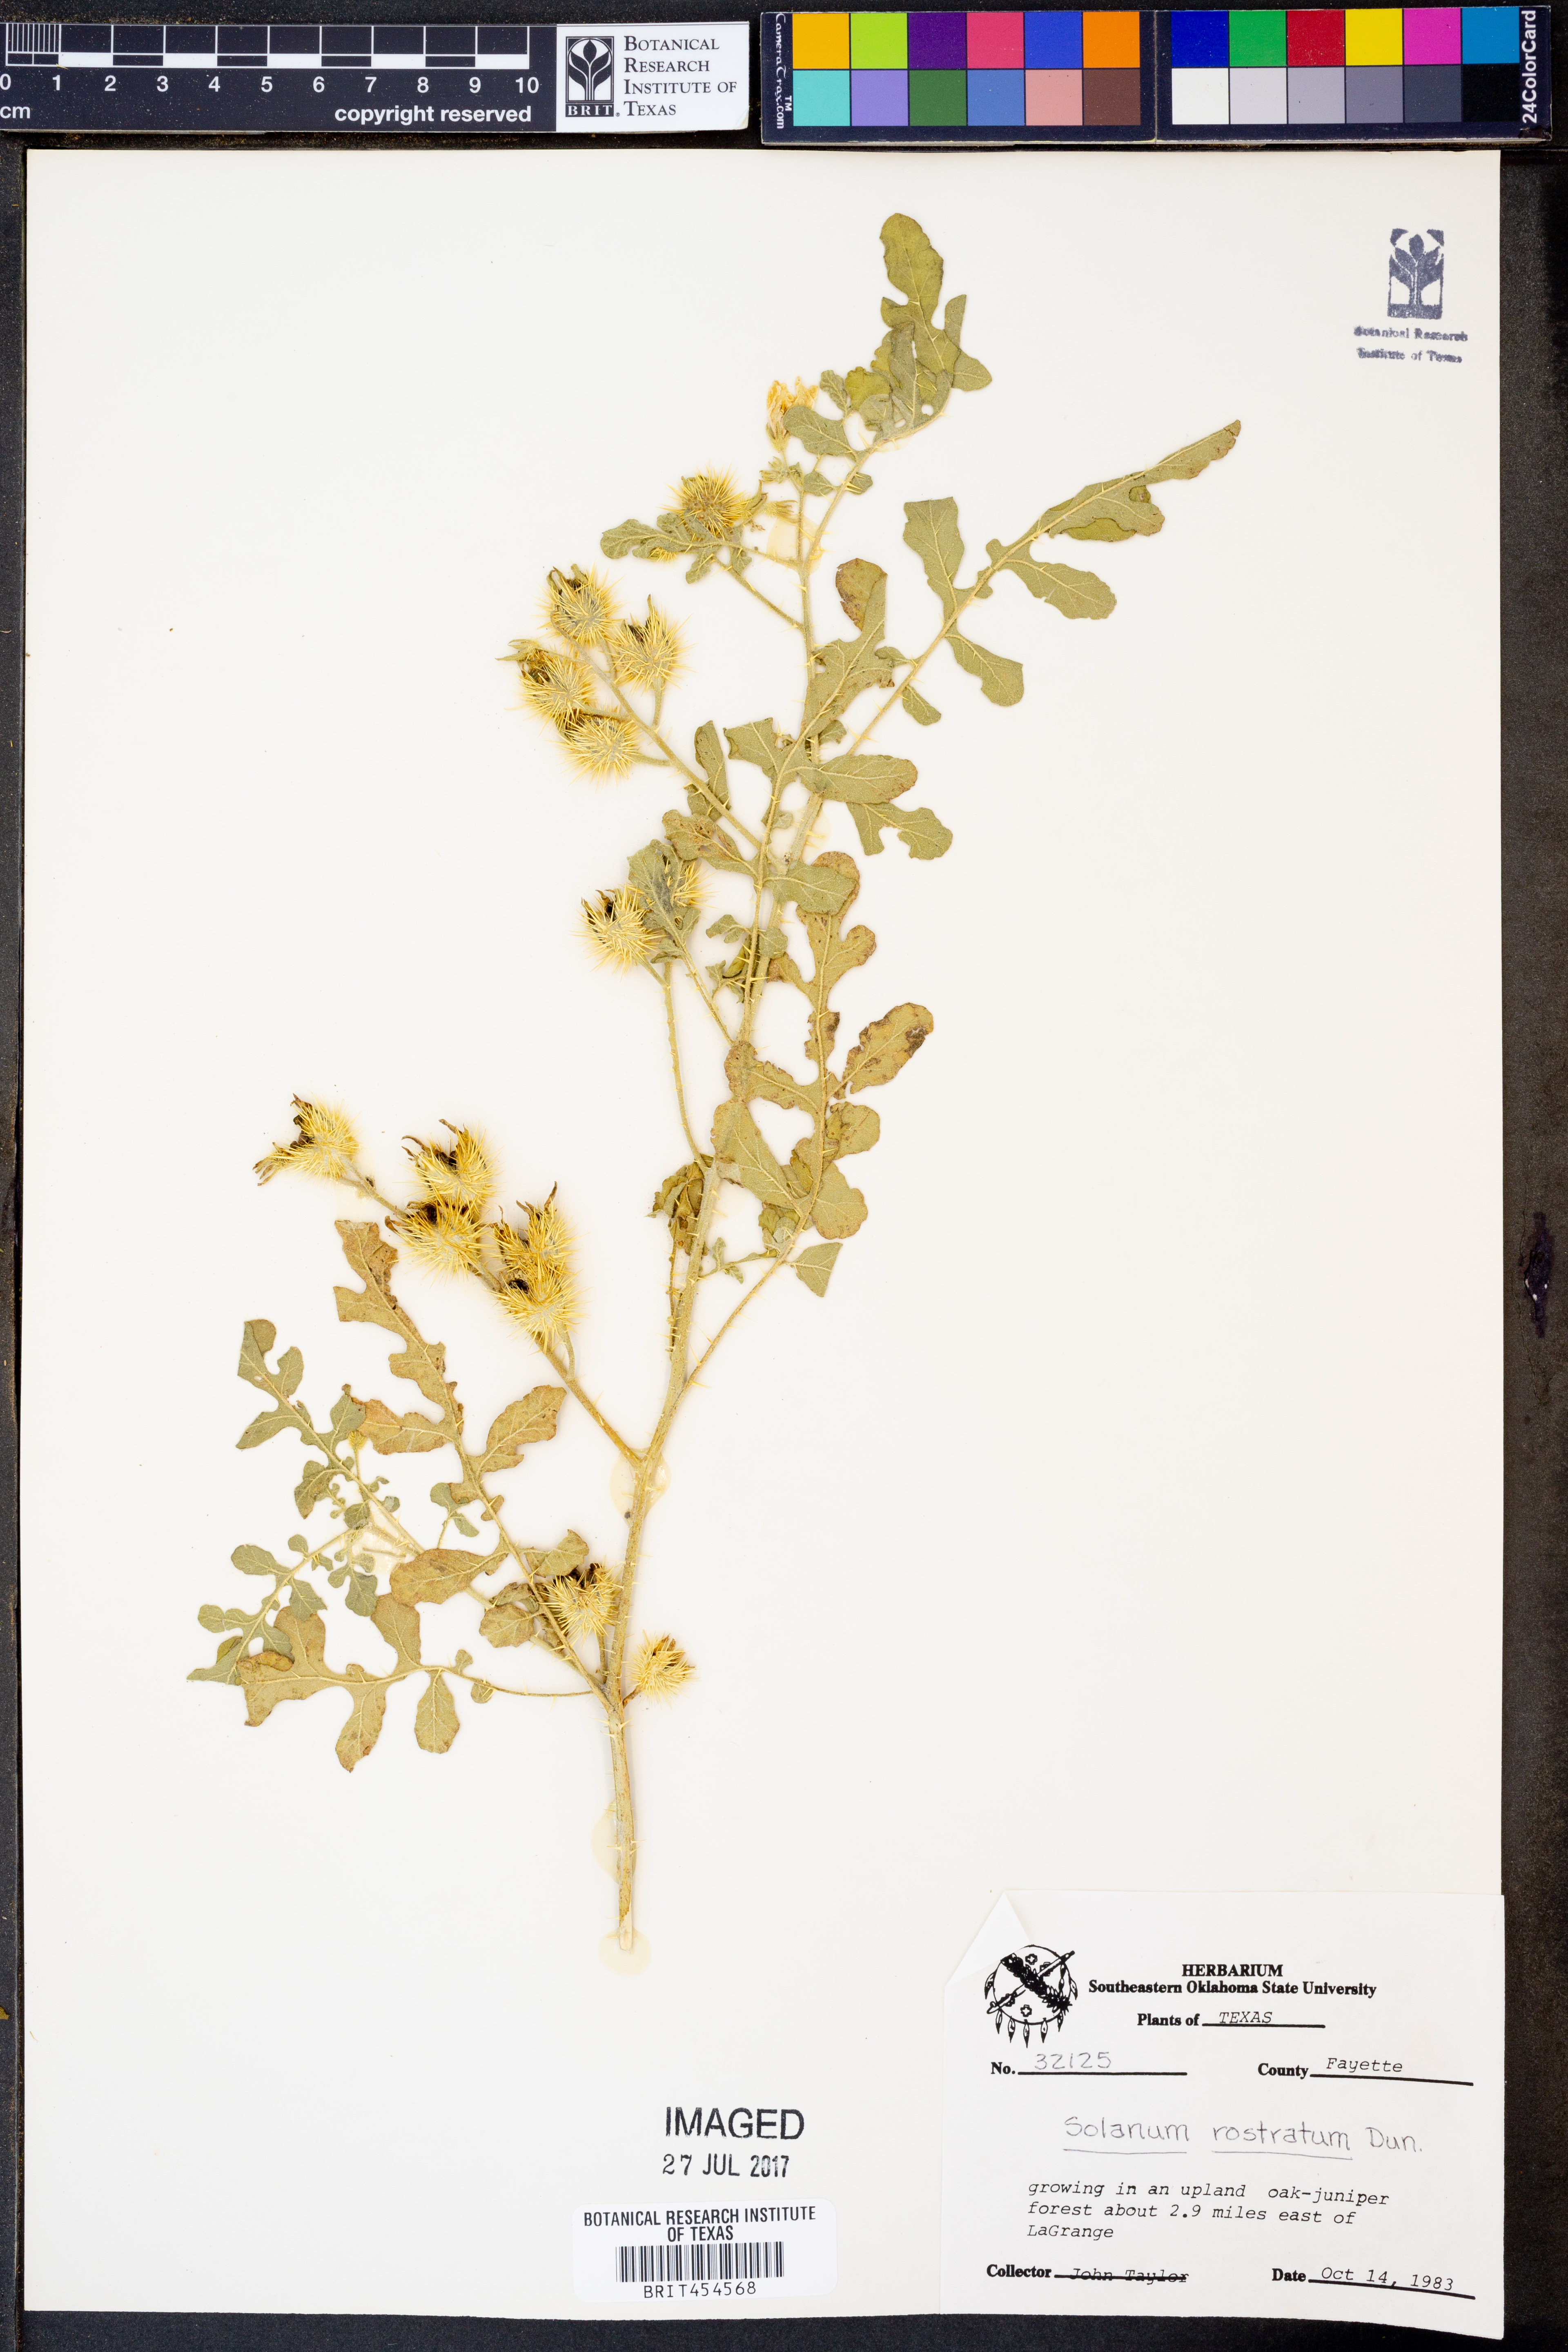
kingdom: Plantae
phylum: Tracheophyta
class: Magnoliopsida
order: Solanales
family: Solanaceae
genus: Solanum
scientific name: Solanum angustifolium
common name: Buffalobur nightshade
